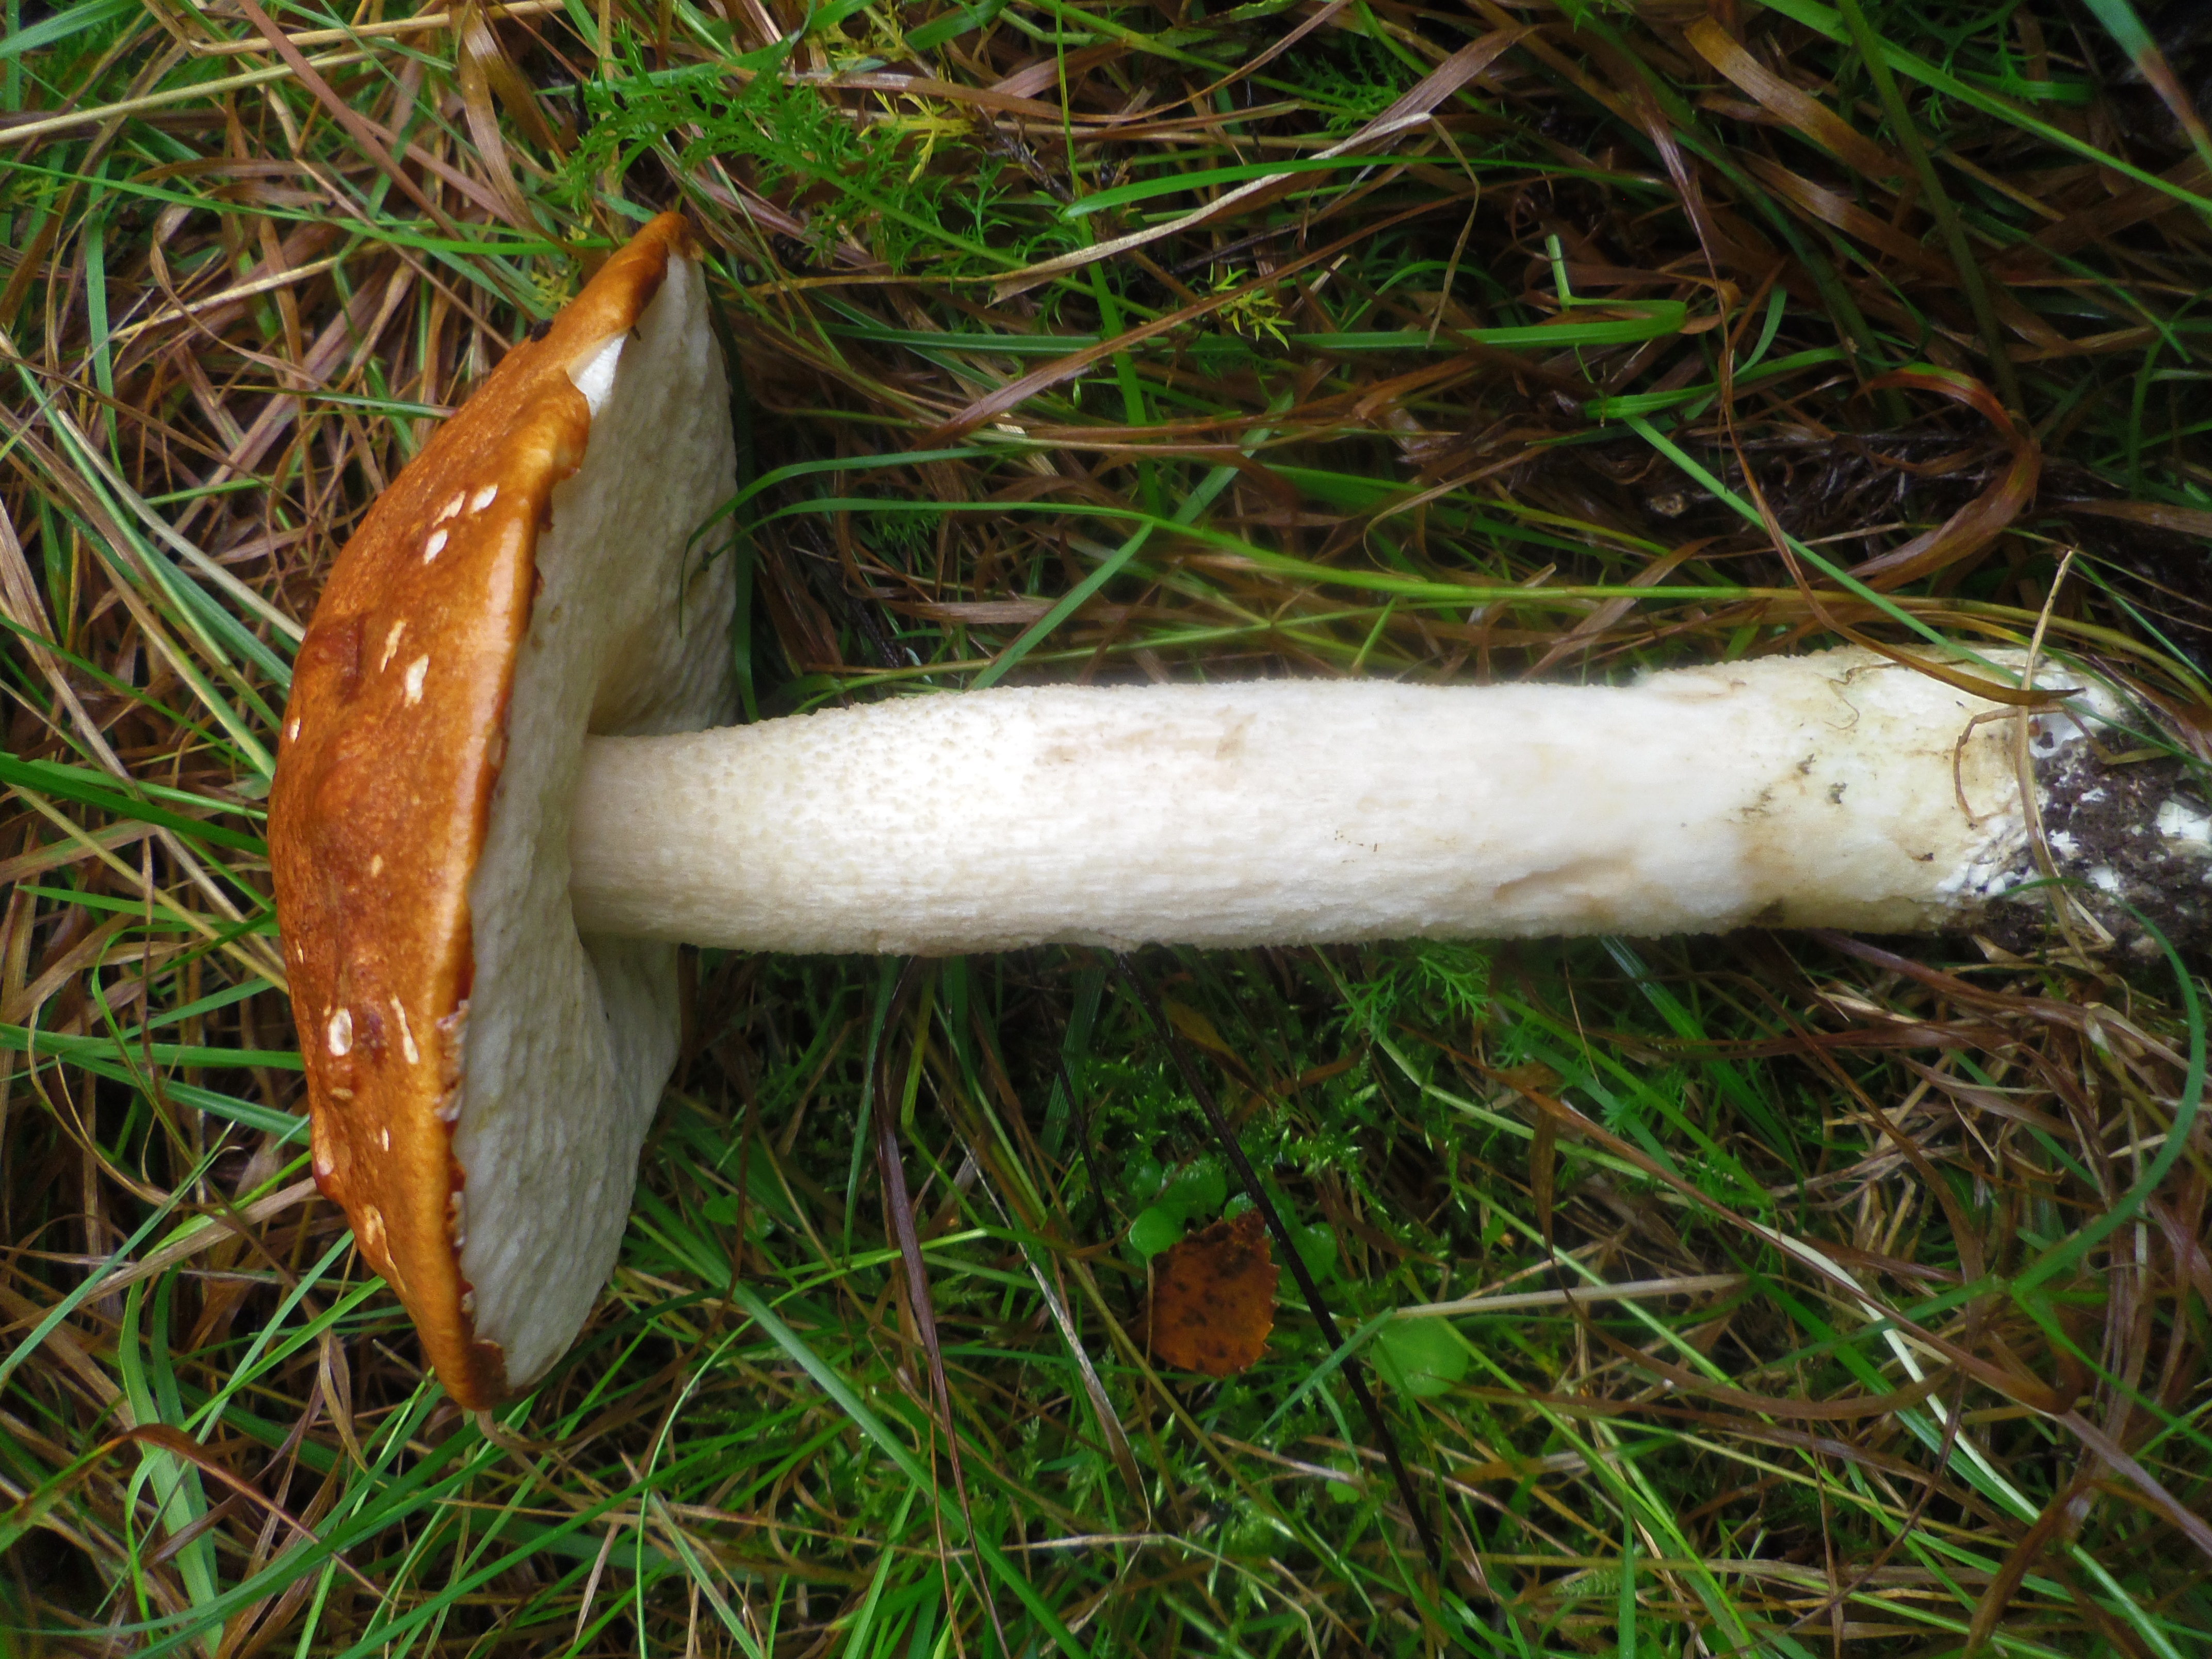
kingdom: Fungi
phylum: Basidiomycota
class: Agaricomycetes
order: Boletales
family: Boletaceae
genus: Leccinum
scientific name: Leccinum albostipitatum
